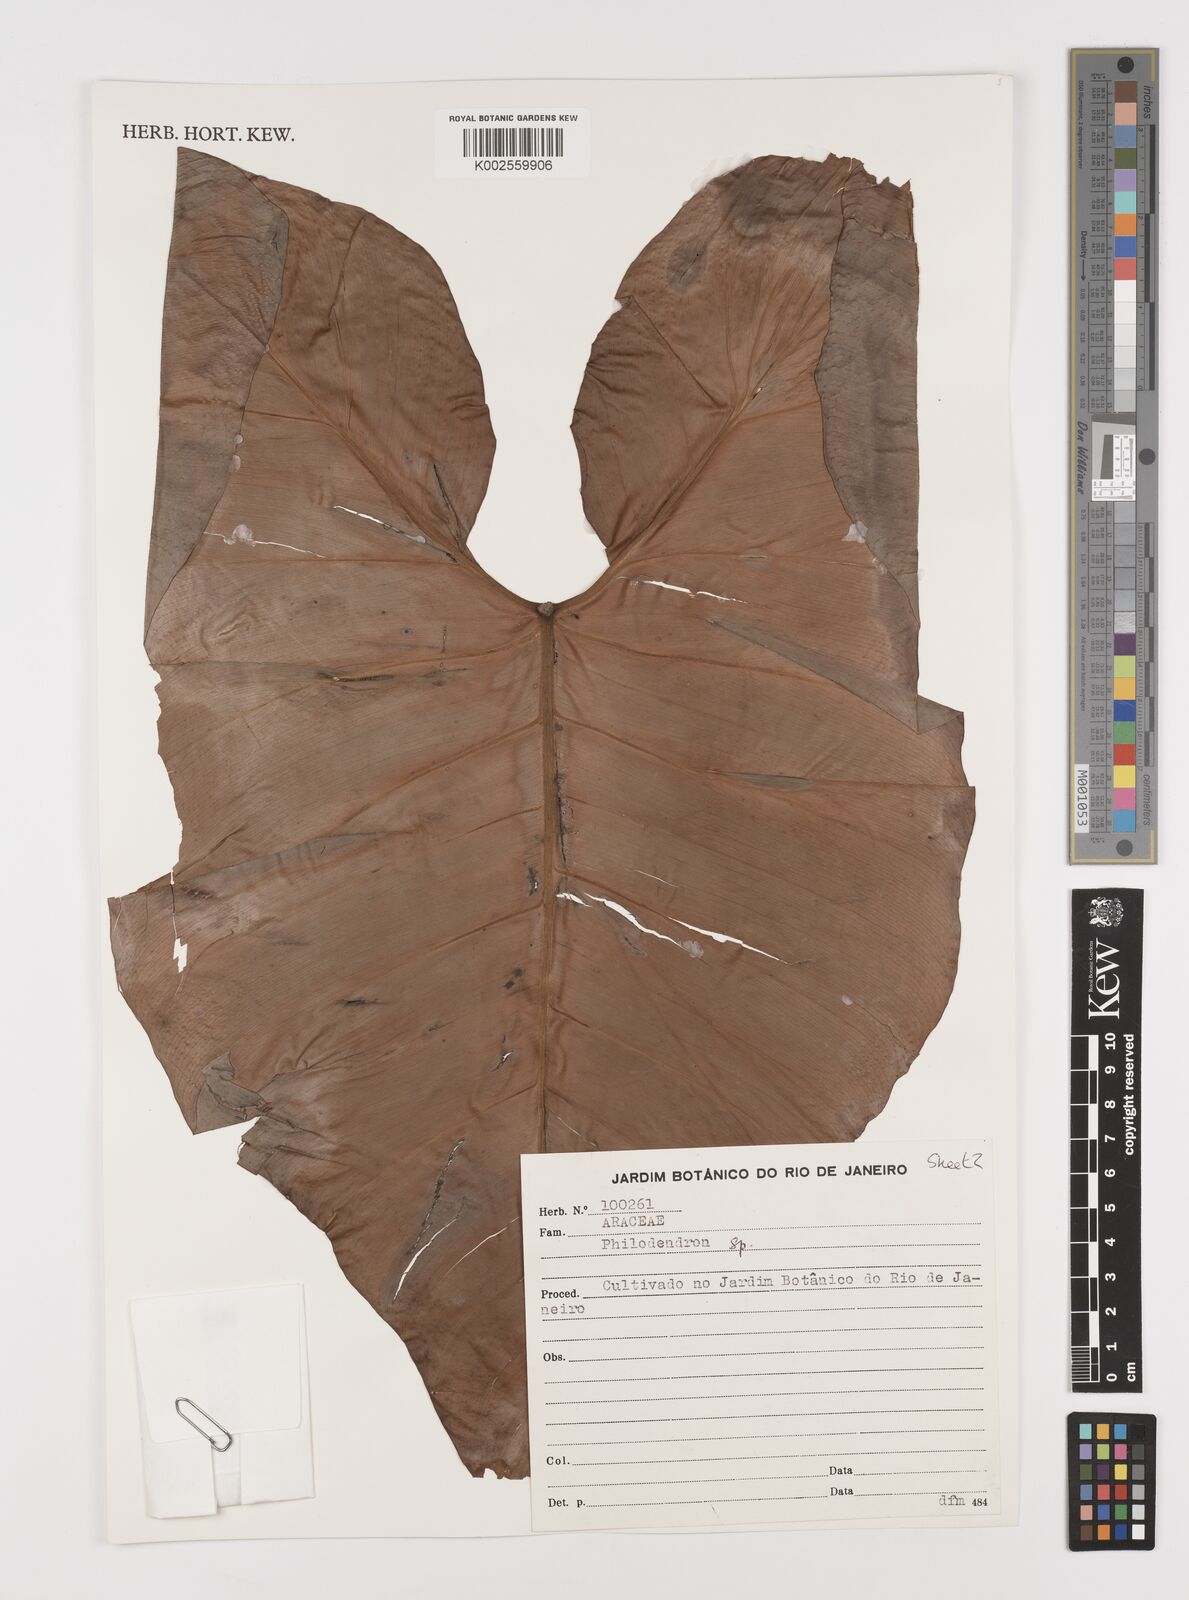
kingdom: Plantae
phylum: Tracheophyta
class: Liliopsida
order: Alismatales
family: Araceae
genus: Philodendron
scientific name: Philodendron
